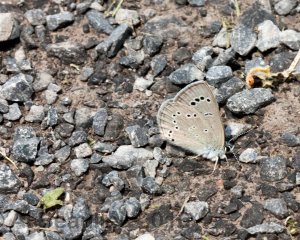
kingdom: Animalia
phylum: Arthropoda
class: Insecta
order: Lepidoptera
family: Lycaenidae
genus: Glaucopsyche
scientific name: Glaucopsyche lygdamus
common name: Silvery Blue
